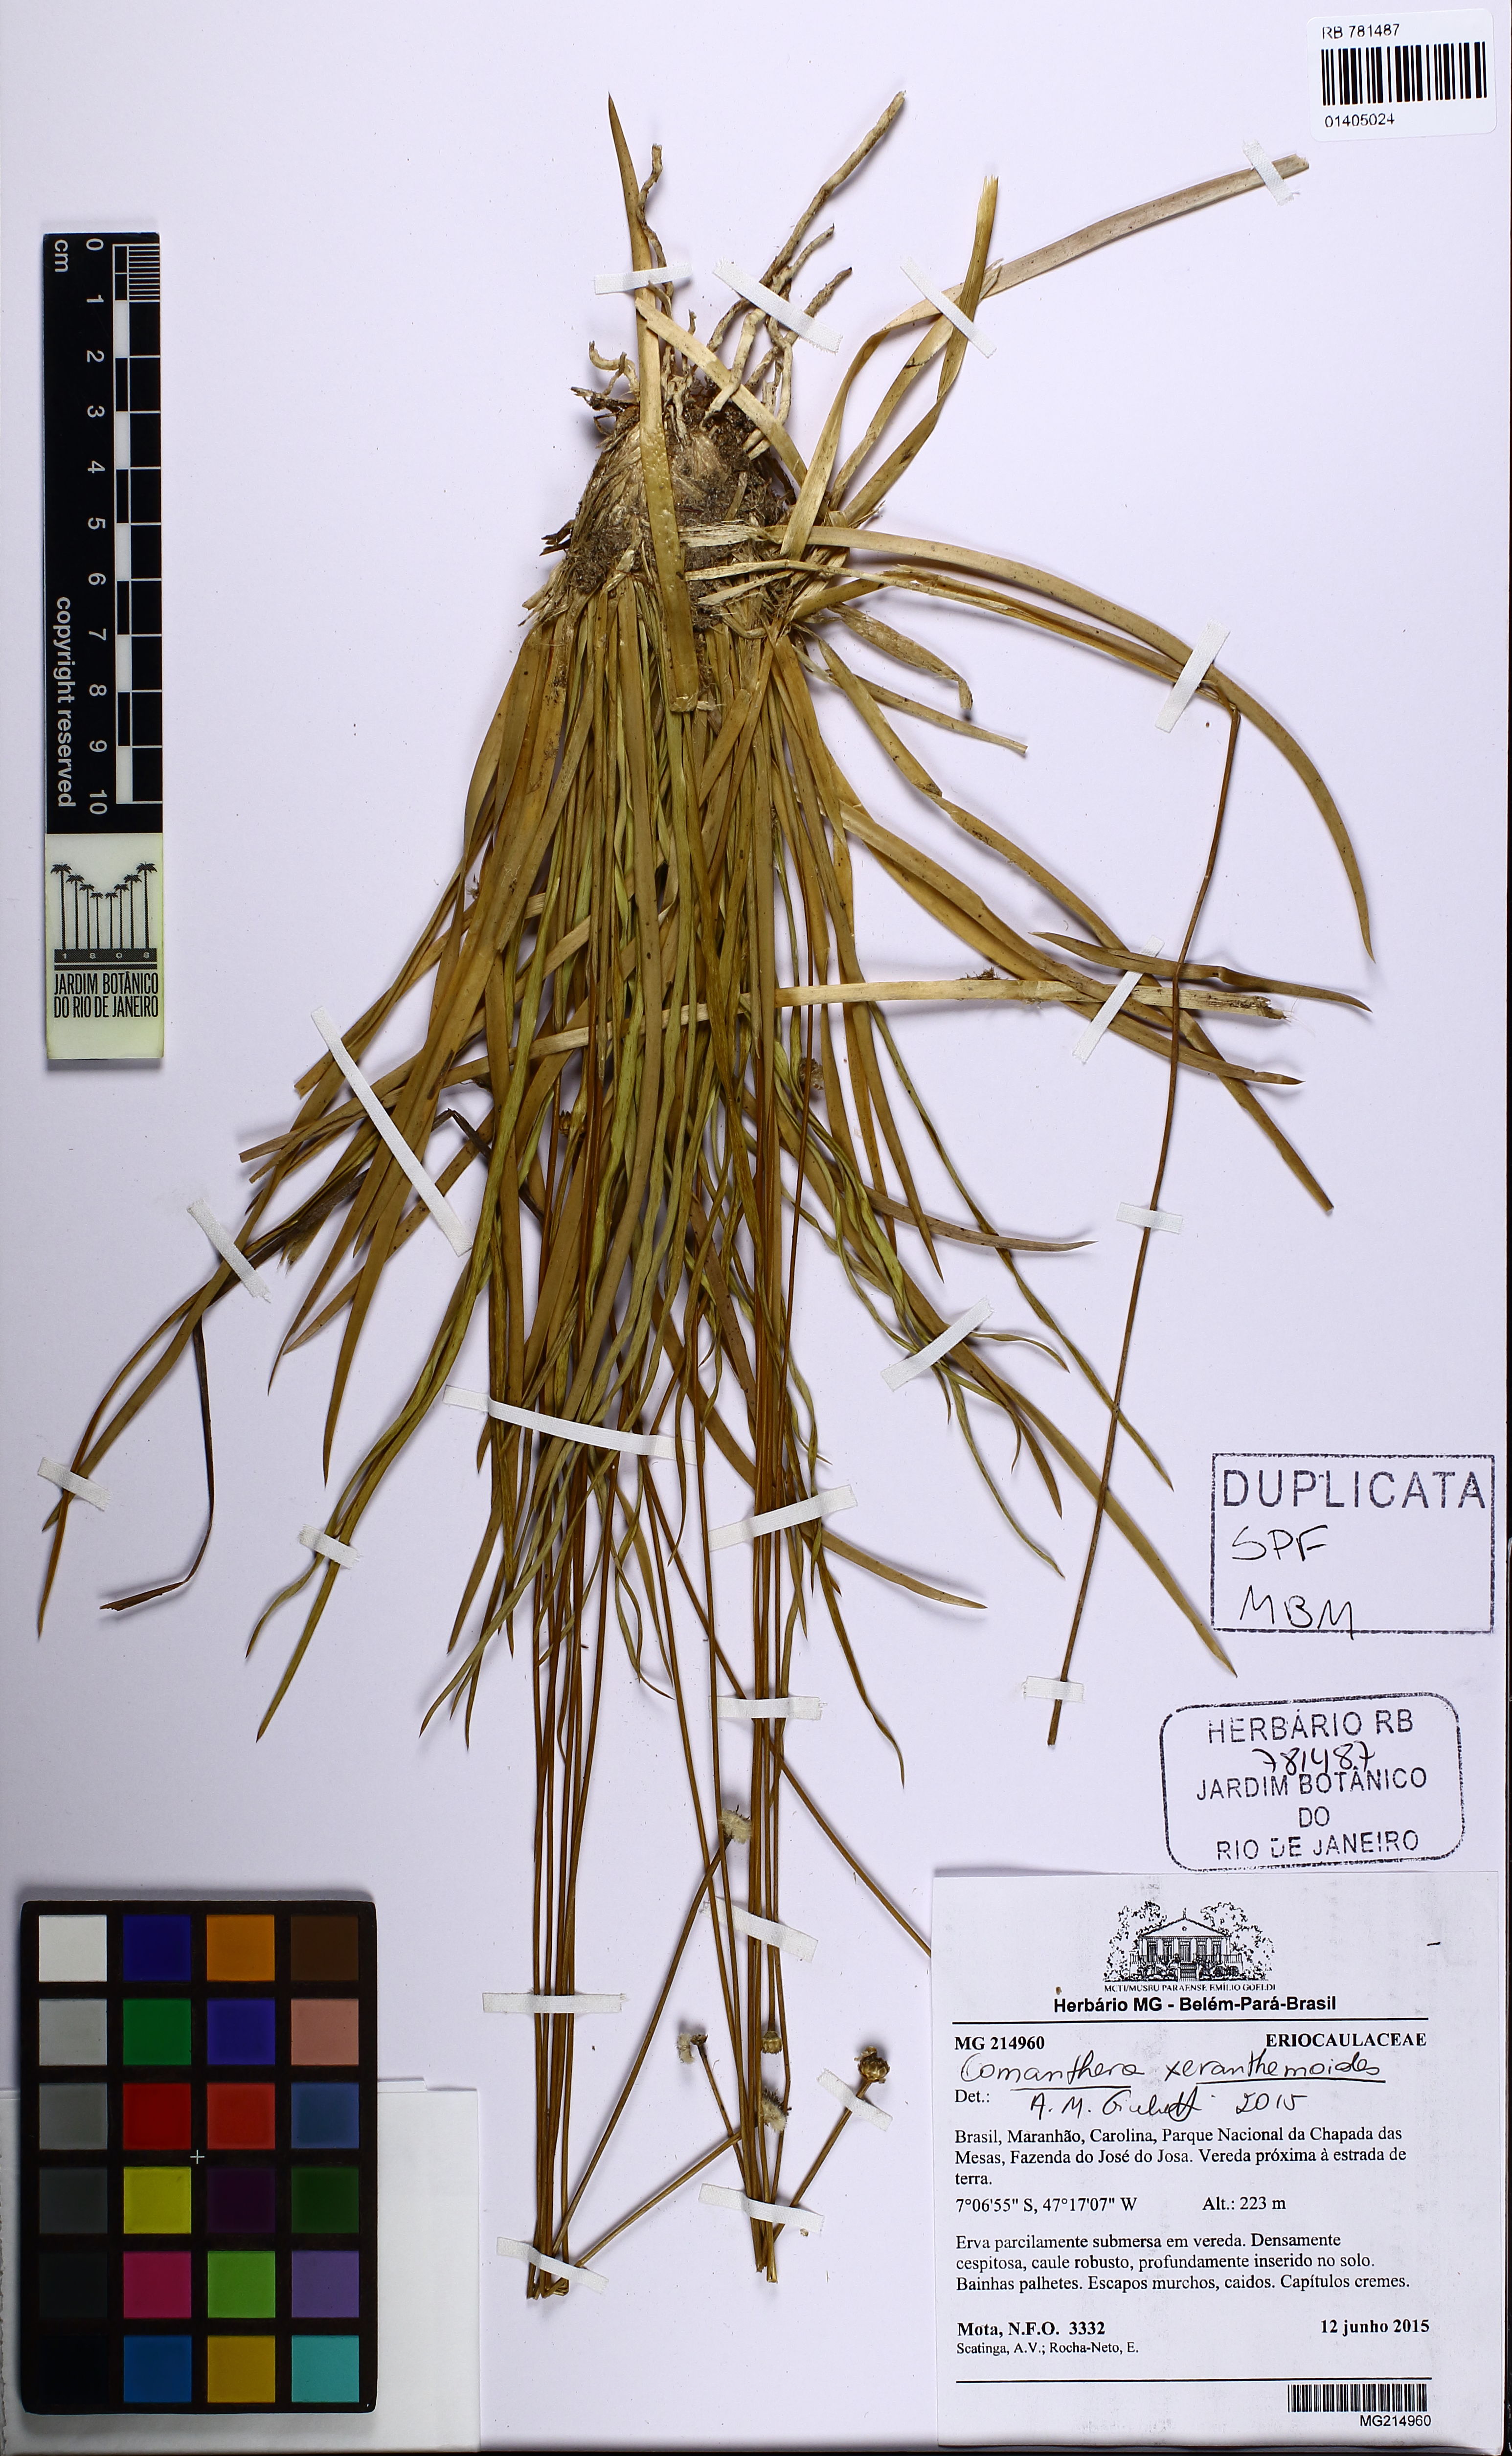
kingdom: Plantae
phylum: Tracheophyta
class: Liliopsida
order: Poales
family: Eriocaulaceae
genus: Comanthera
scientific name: Comanthera xeranthemoides
